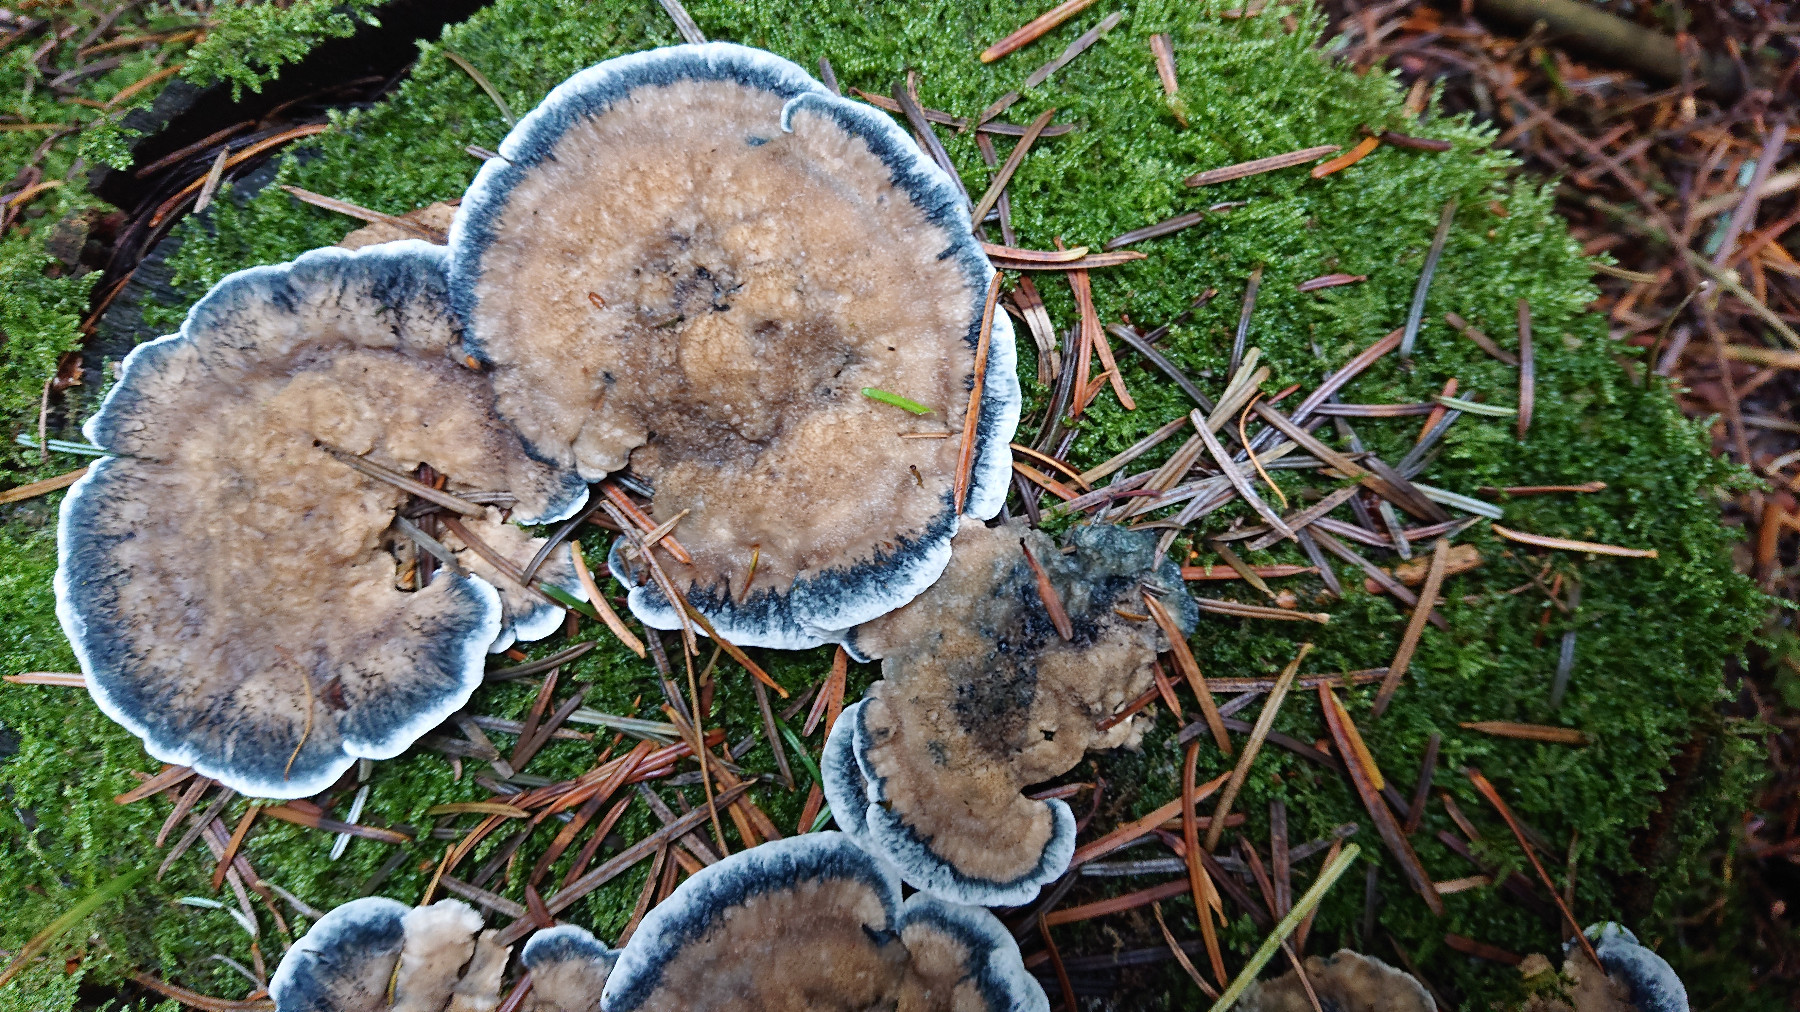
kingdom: Fungi
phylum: Basidiomycota
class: Agaricomycetes
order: Polyporales
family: Polyporaceae
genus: Cyanosporus
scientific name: Cyanosporus caesius
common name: blålig kødporesvamp
